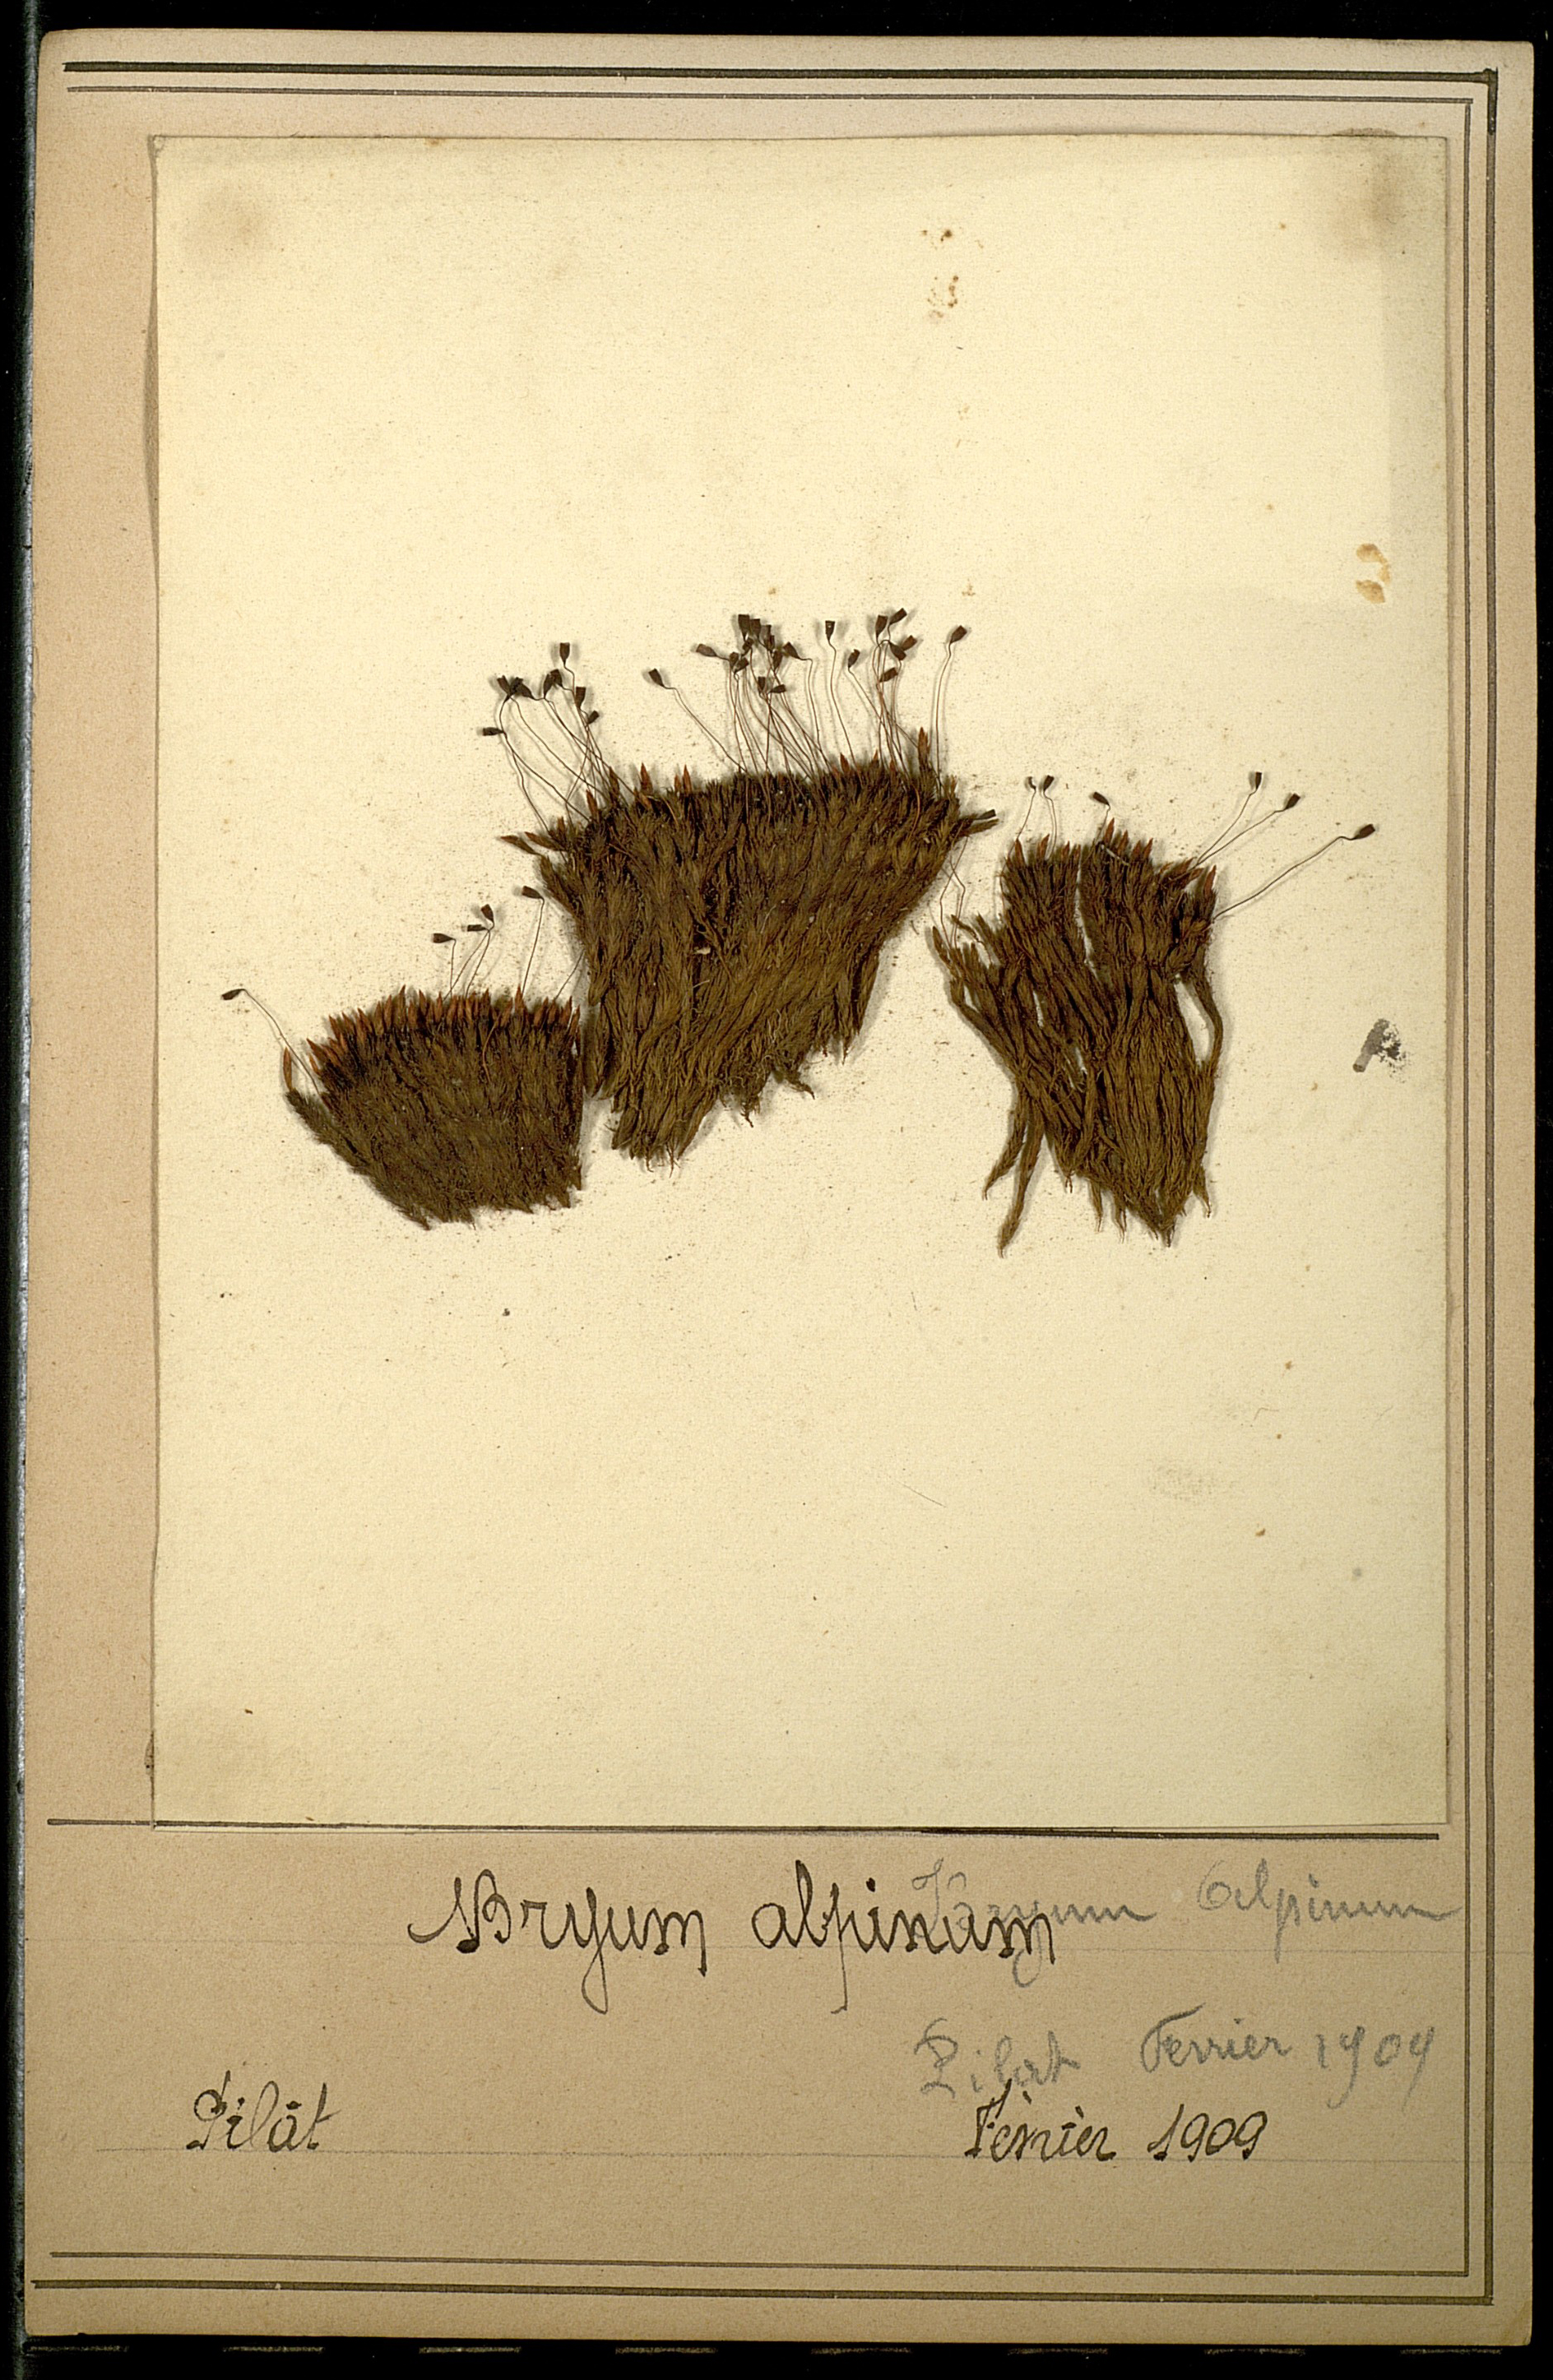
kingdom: Plantae
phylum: Bryophyta
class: Bryopsida
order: Bryales
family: Bryaceae
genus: Imbribryum
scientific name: Imbribryum alpinum
